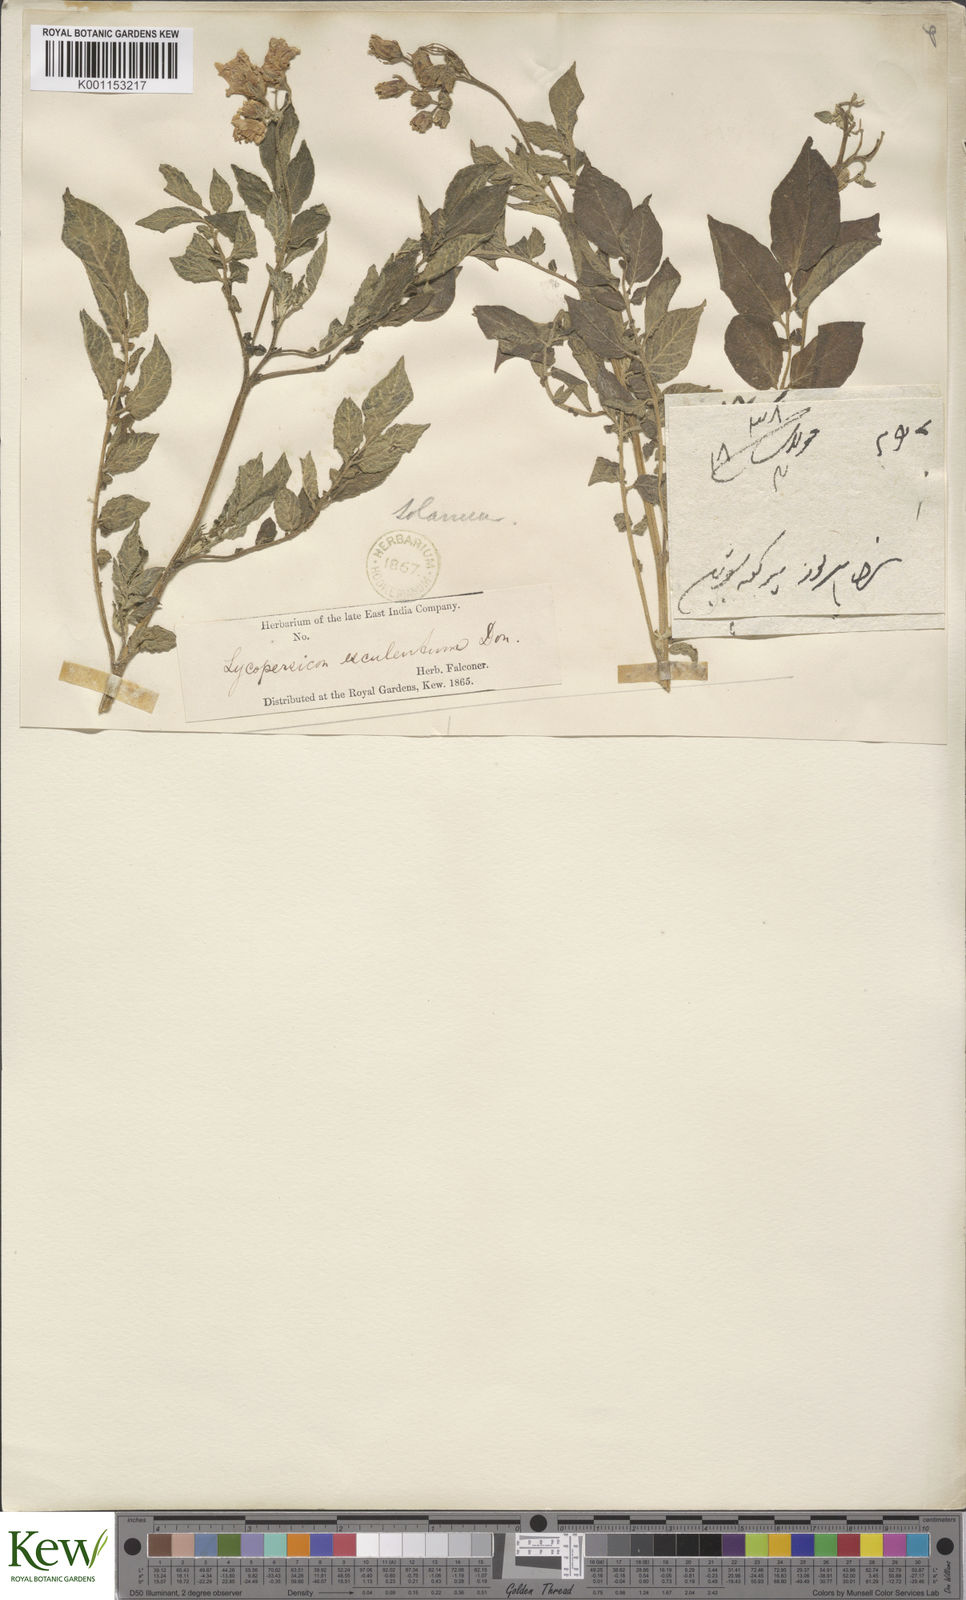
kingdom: Plantae
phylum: Tracheophyta
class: Magnoliopsida
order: Solanales
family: Solanaceae
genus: Solanum
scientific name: Solanum tuberosum
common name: Potato
